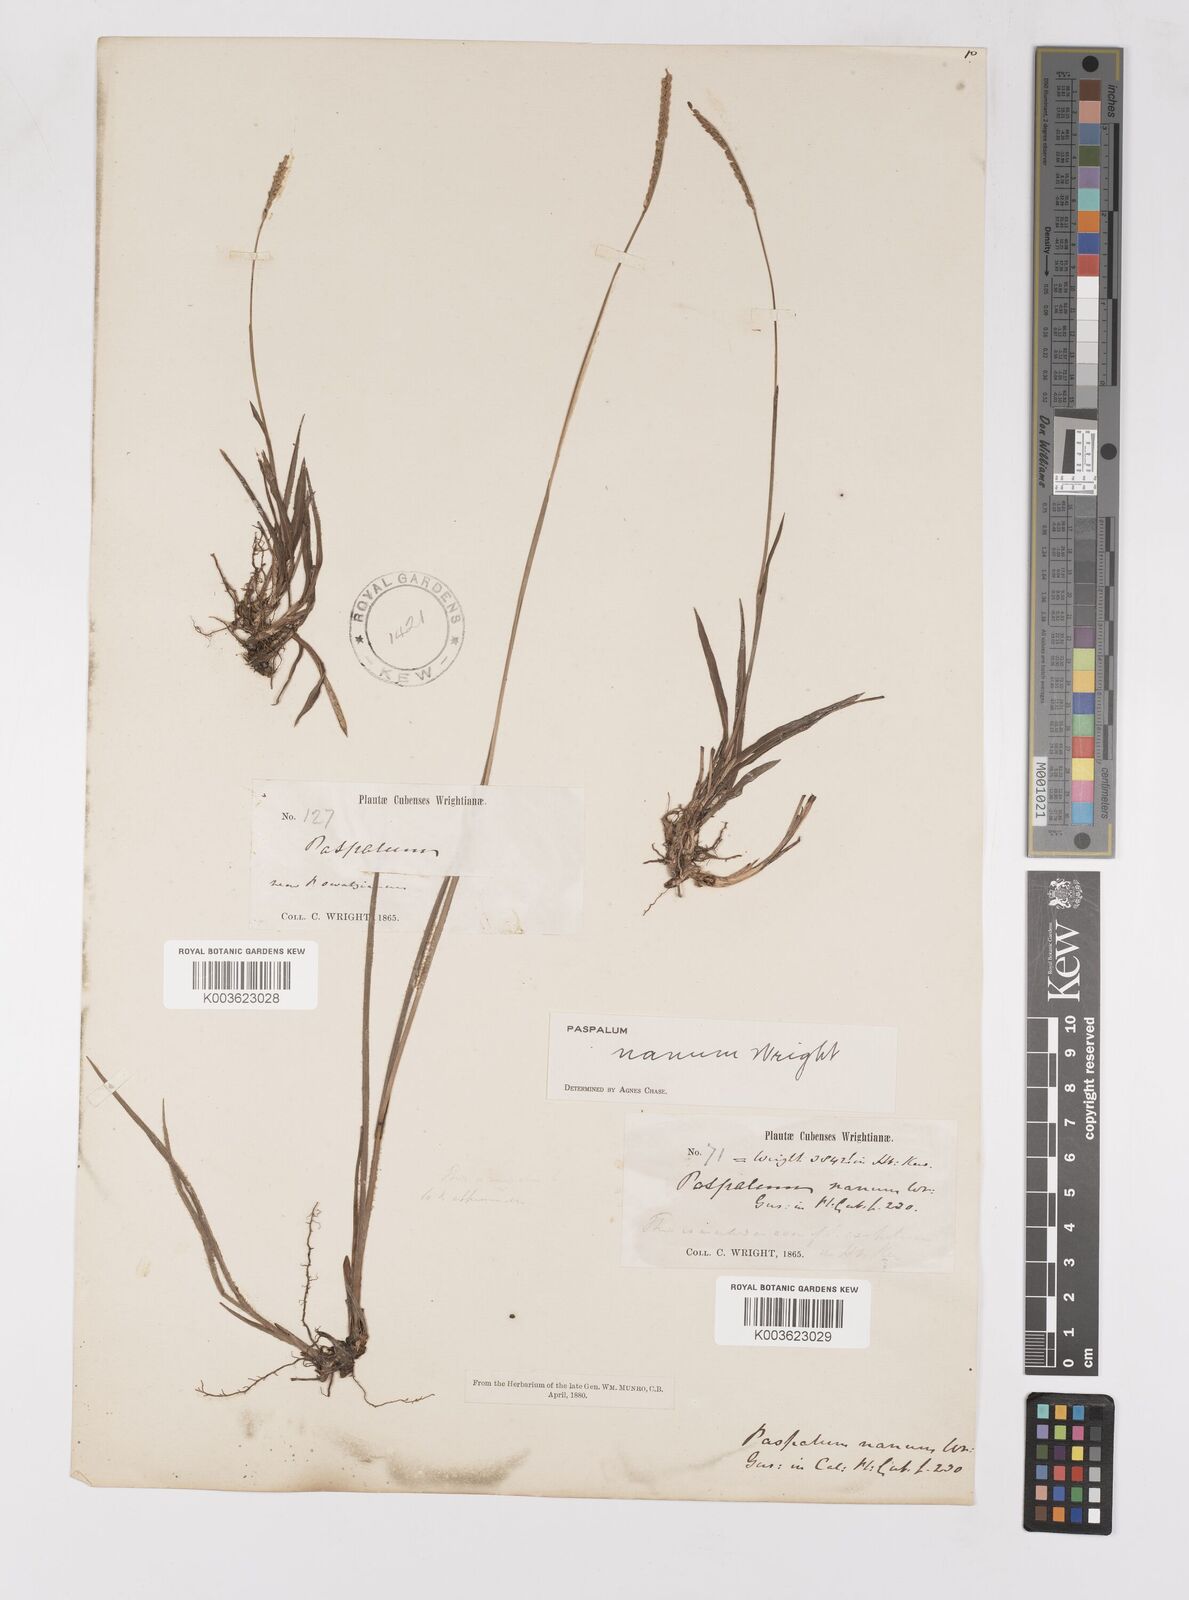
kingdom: Plantae
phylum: Tracheophyta
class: Liliopsida
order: Poales
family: Poaceae
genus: Paspalum
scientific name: Paspalum nanum
